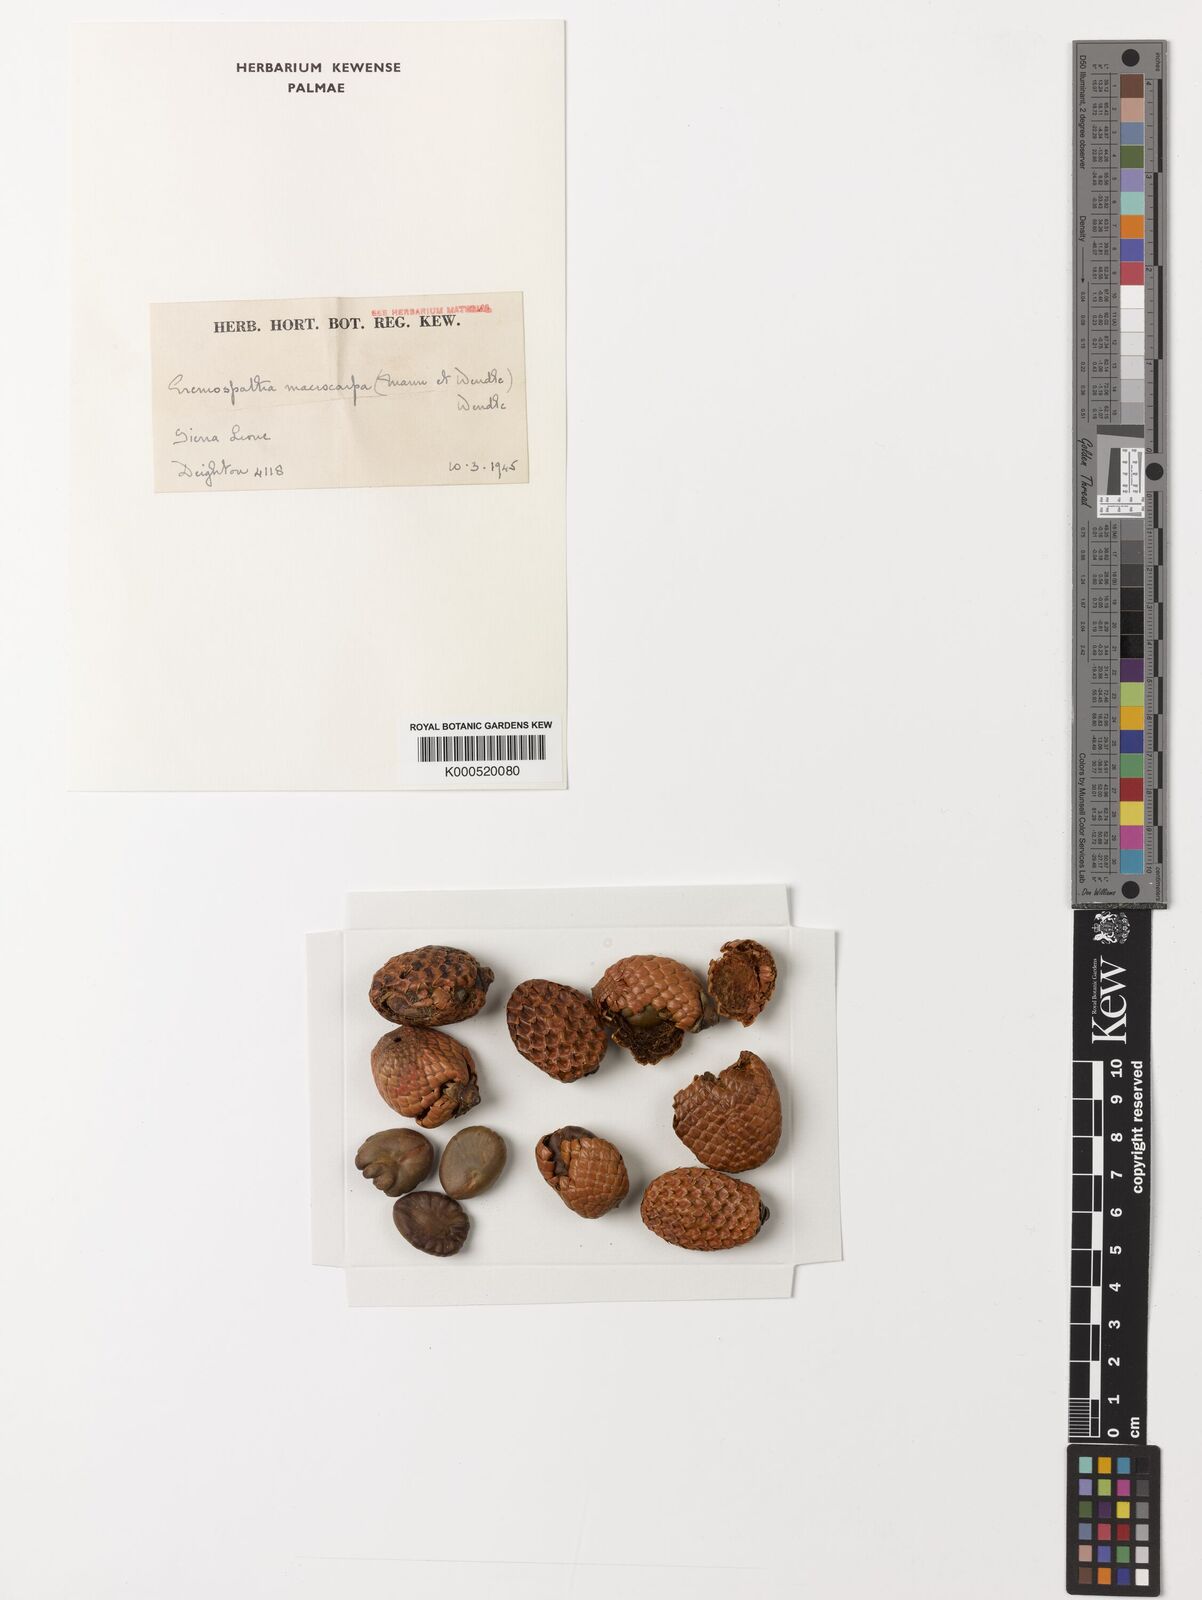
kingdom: Plantae
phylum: Tracheophyta
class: Liliopsida
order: Arecales
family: Arecaceae
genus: Eremospatha
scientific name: Eremospatha
